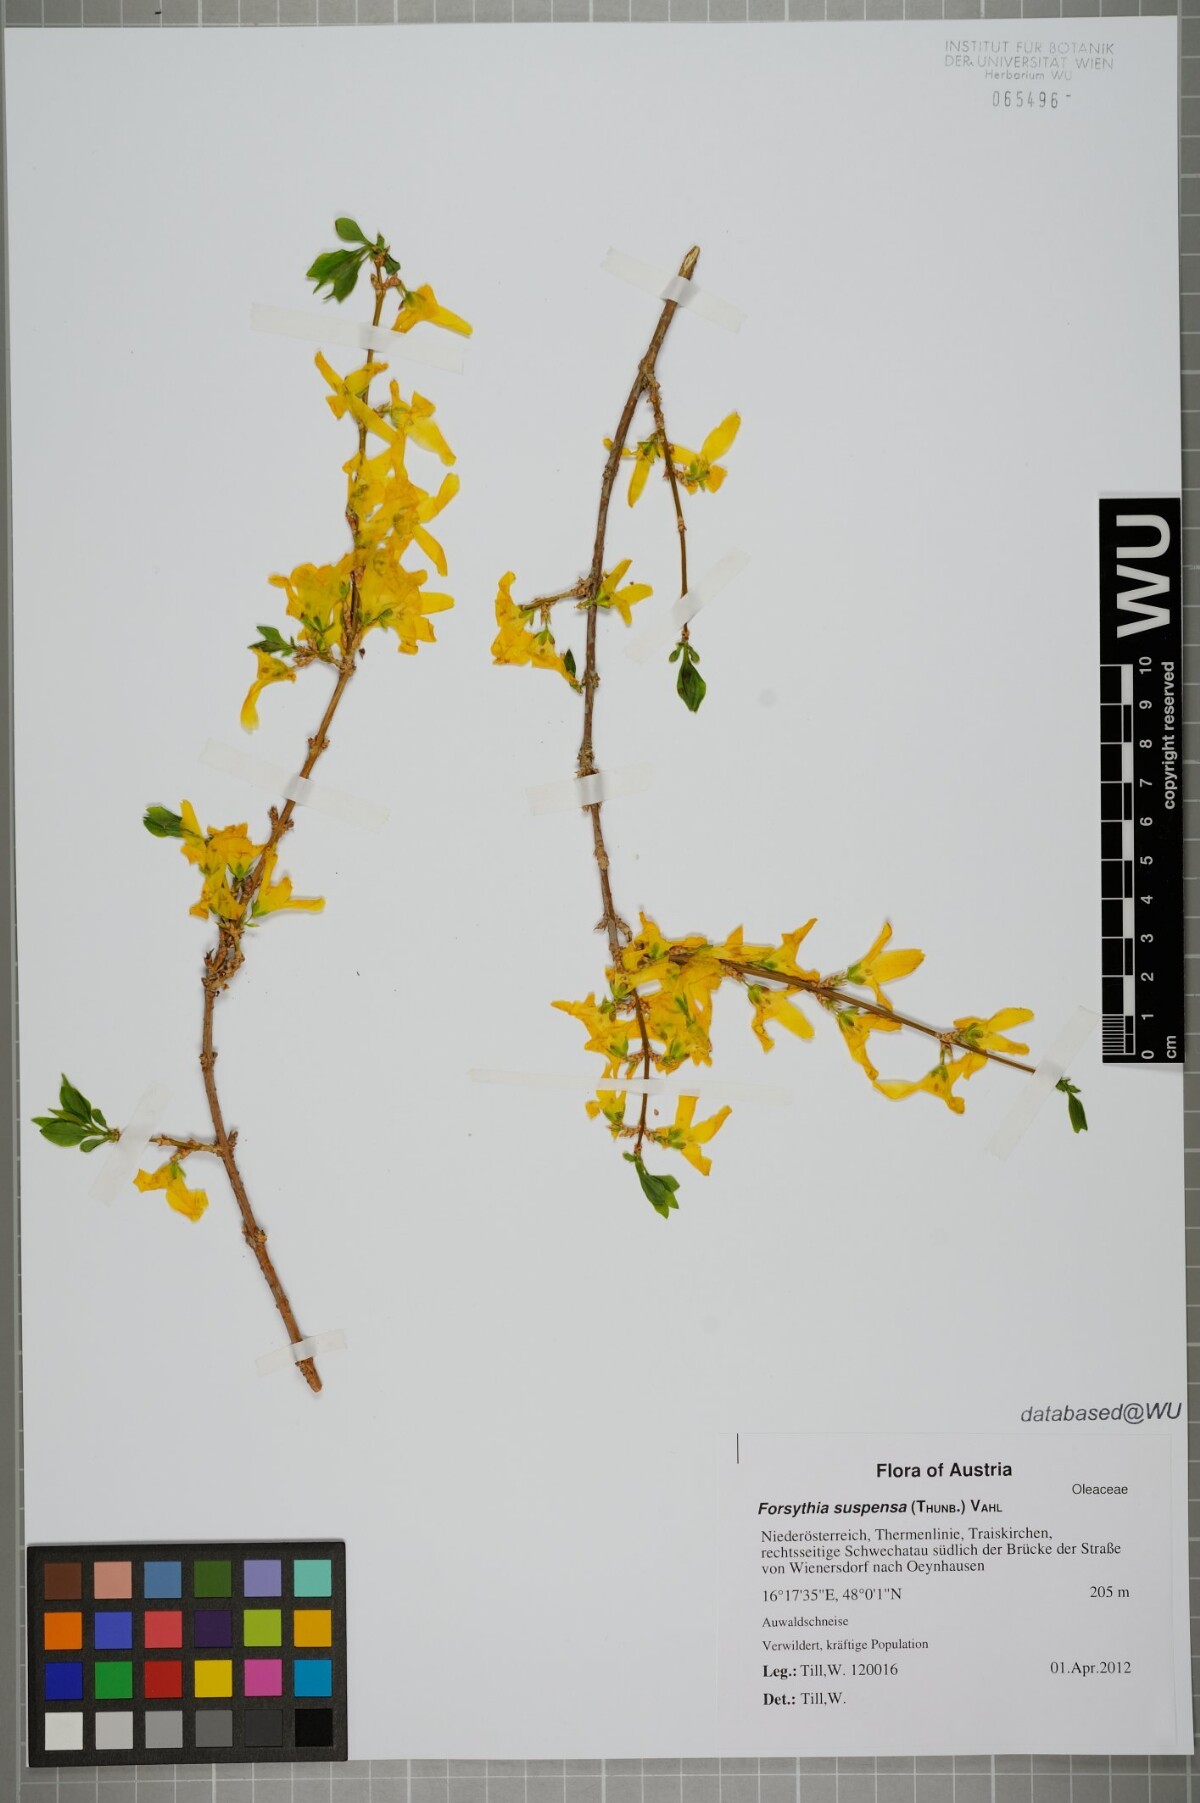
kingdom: Plantae
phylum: Tracheophyta
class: Magnoliopsida
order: Lamiales
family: Oleaceae
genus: Forsythia
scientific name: Forsythia suspensa
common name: Weeping forsythia
